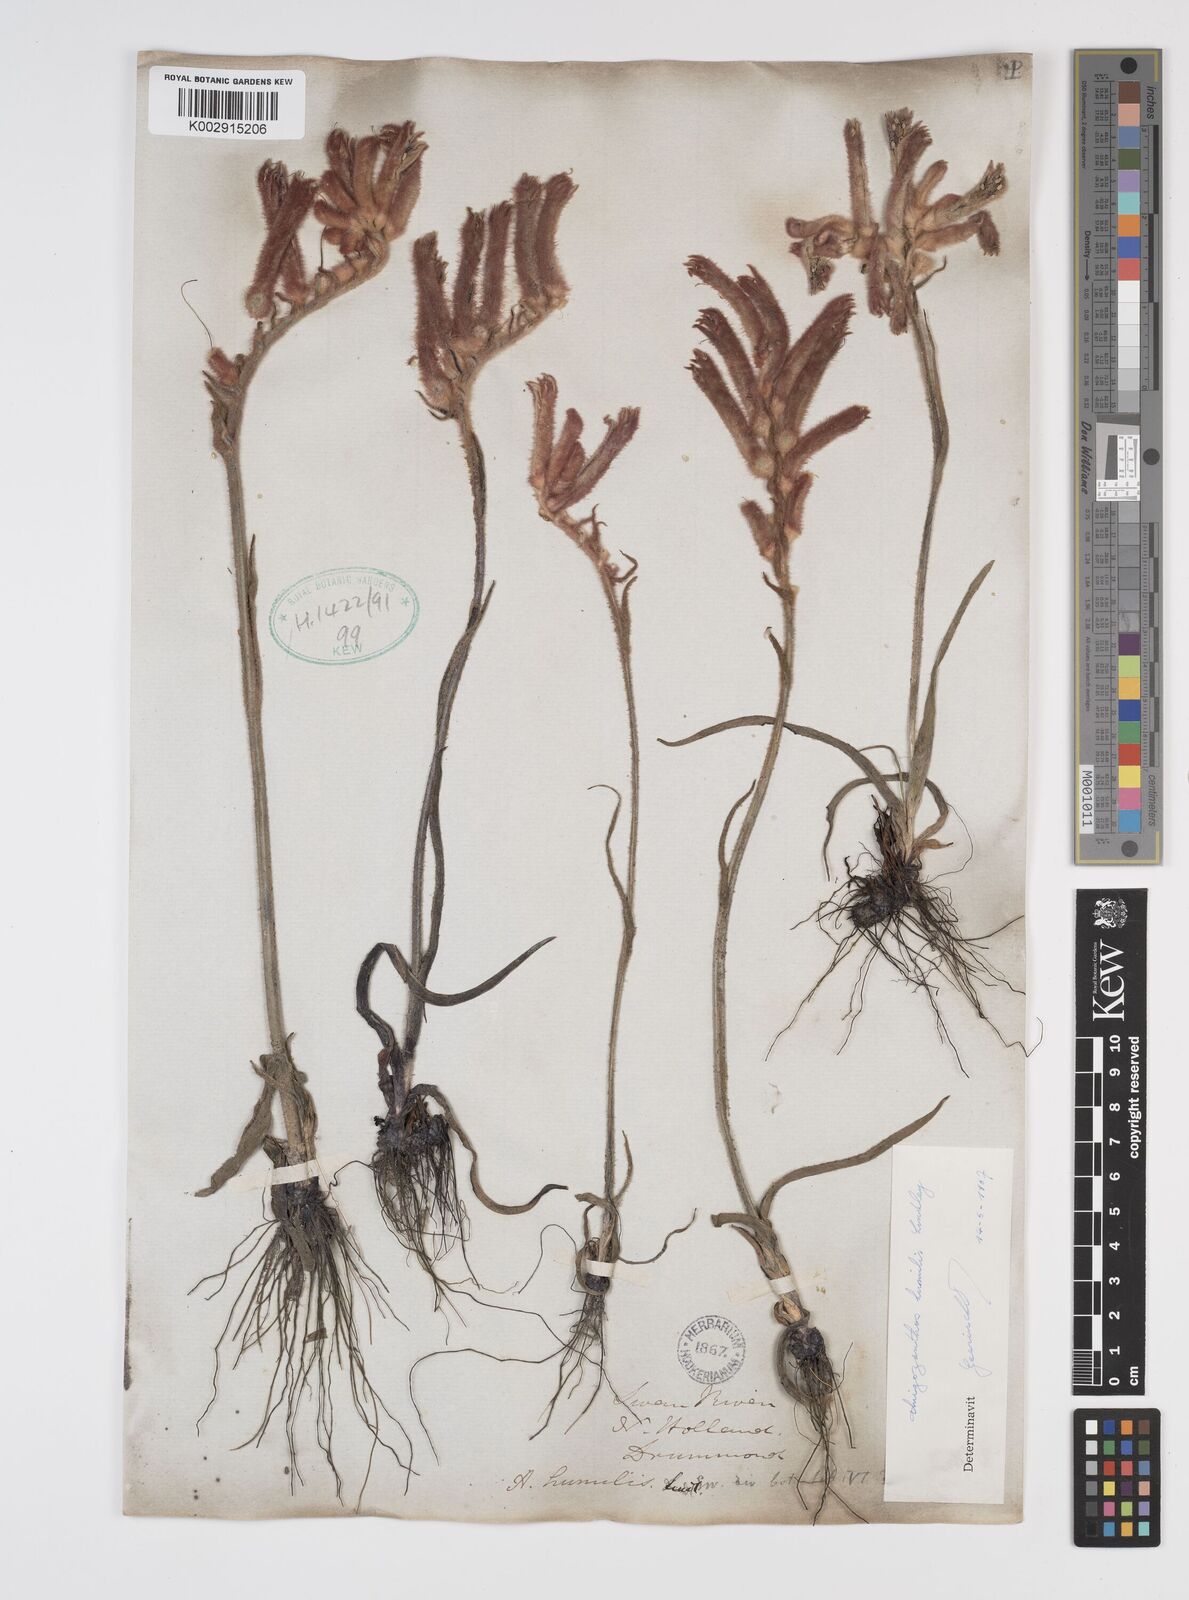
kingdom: Plantae
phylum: Tracheophyta
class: Liliopsida
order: Commelinales
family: Haemodoraceae
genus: Anigozanthos
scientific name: Anigozanthos humilis
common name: Cat's-paw
